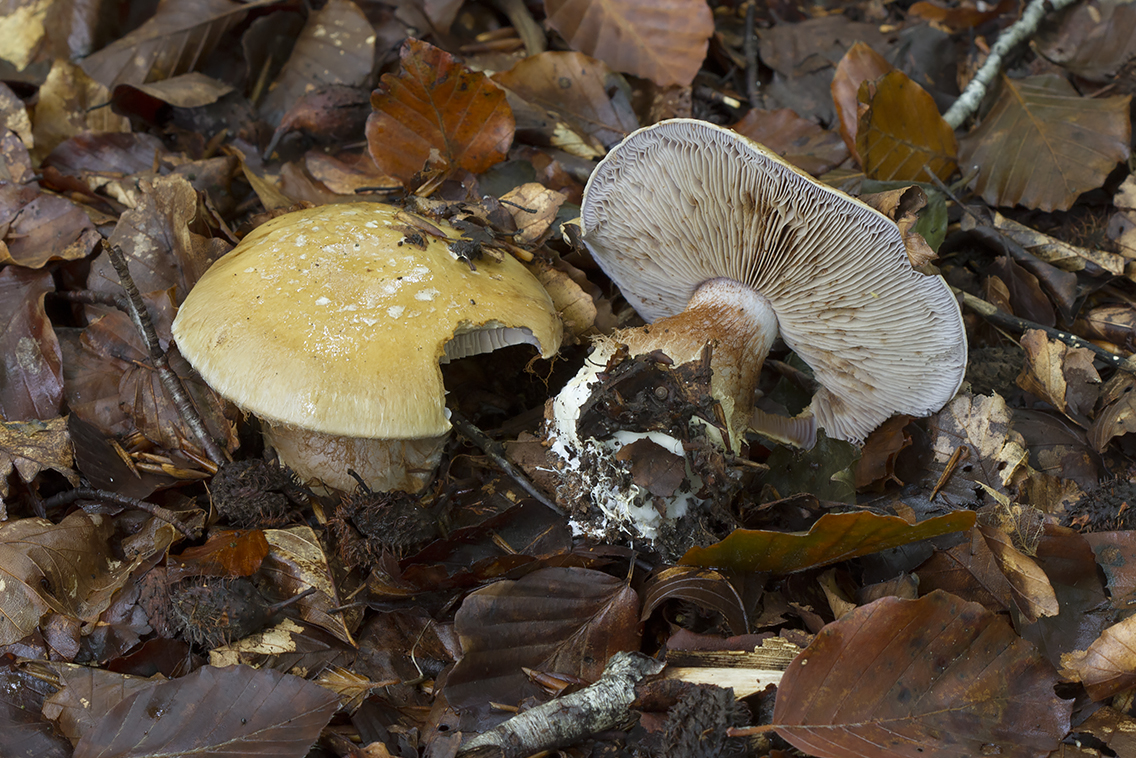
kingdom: Fungi
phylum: Basidiomycota
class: Agaricomycetes
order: Agaricales
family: Cortinariaceae
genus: Cortinarius
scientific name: Cortinarius anserinus
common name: bøge-slørhat
